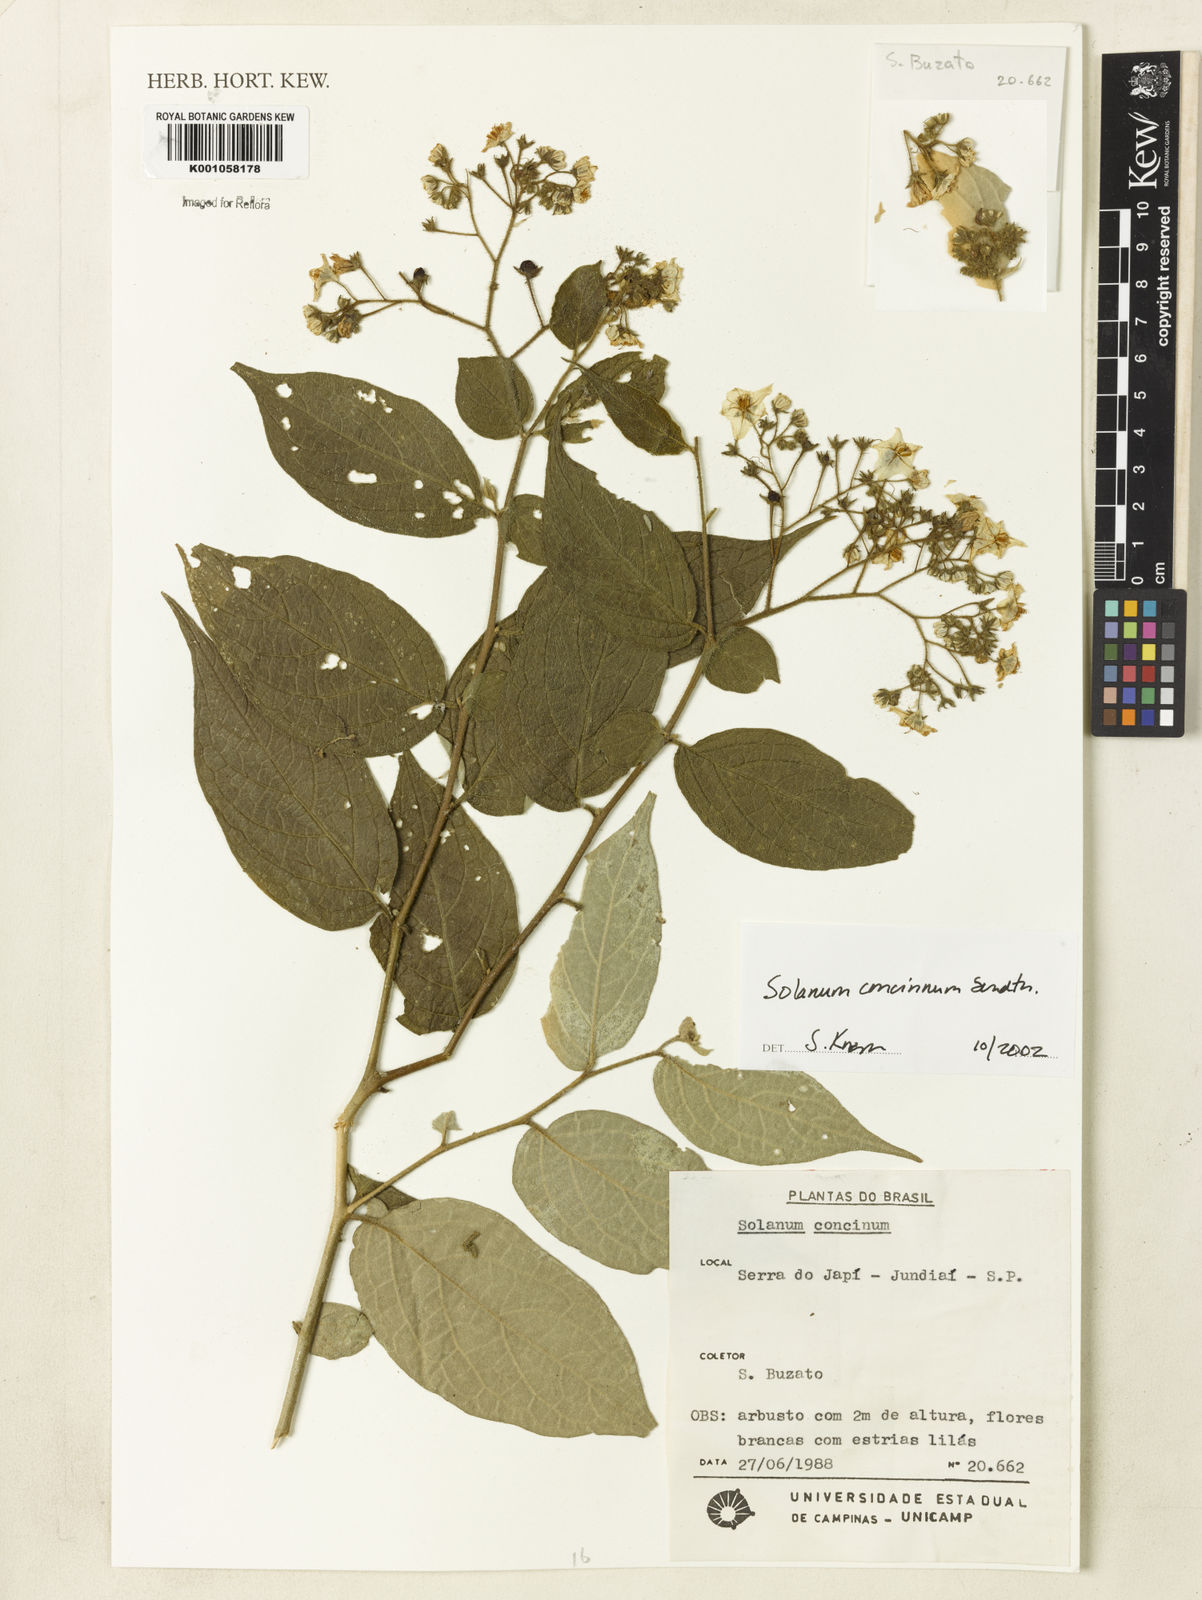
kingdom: Plantae
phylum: Tracheophyta
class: Magnoliopsida
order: Solanales
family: Solanaceae
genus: Solanum
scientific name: Solanum concinnum
